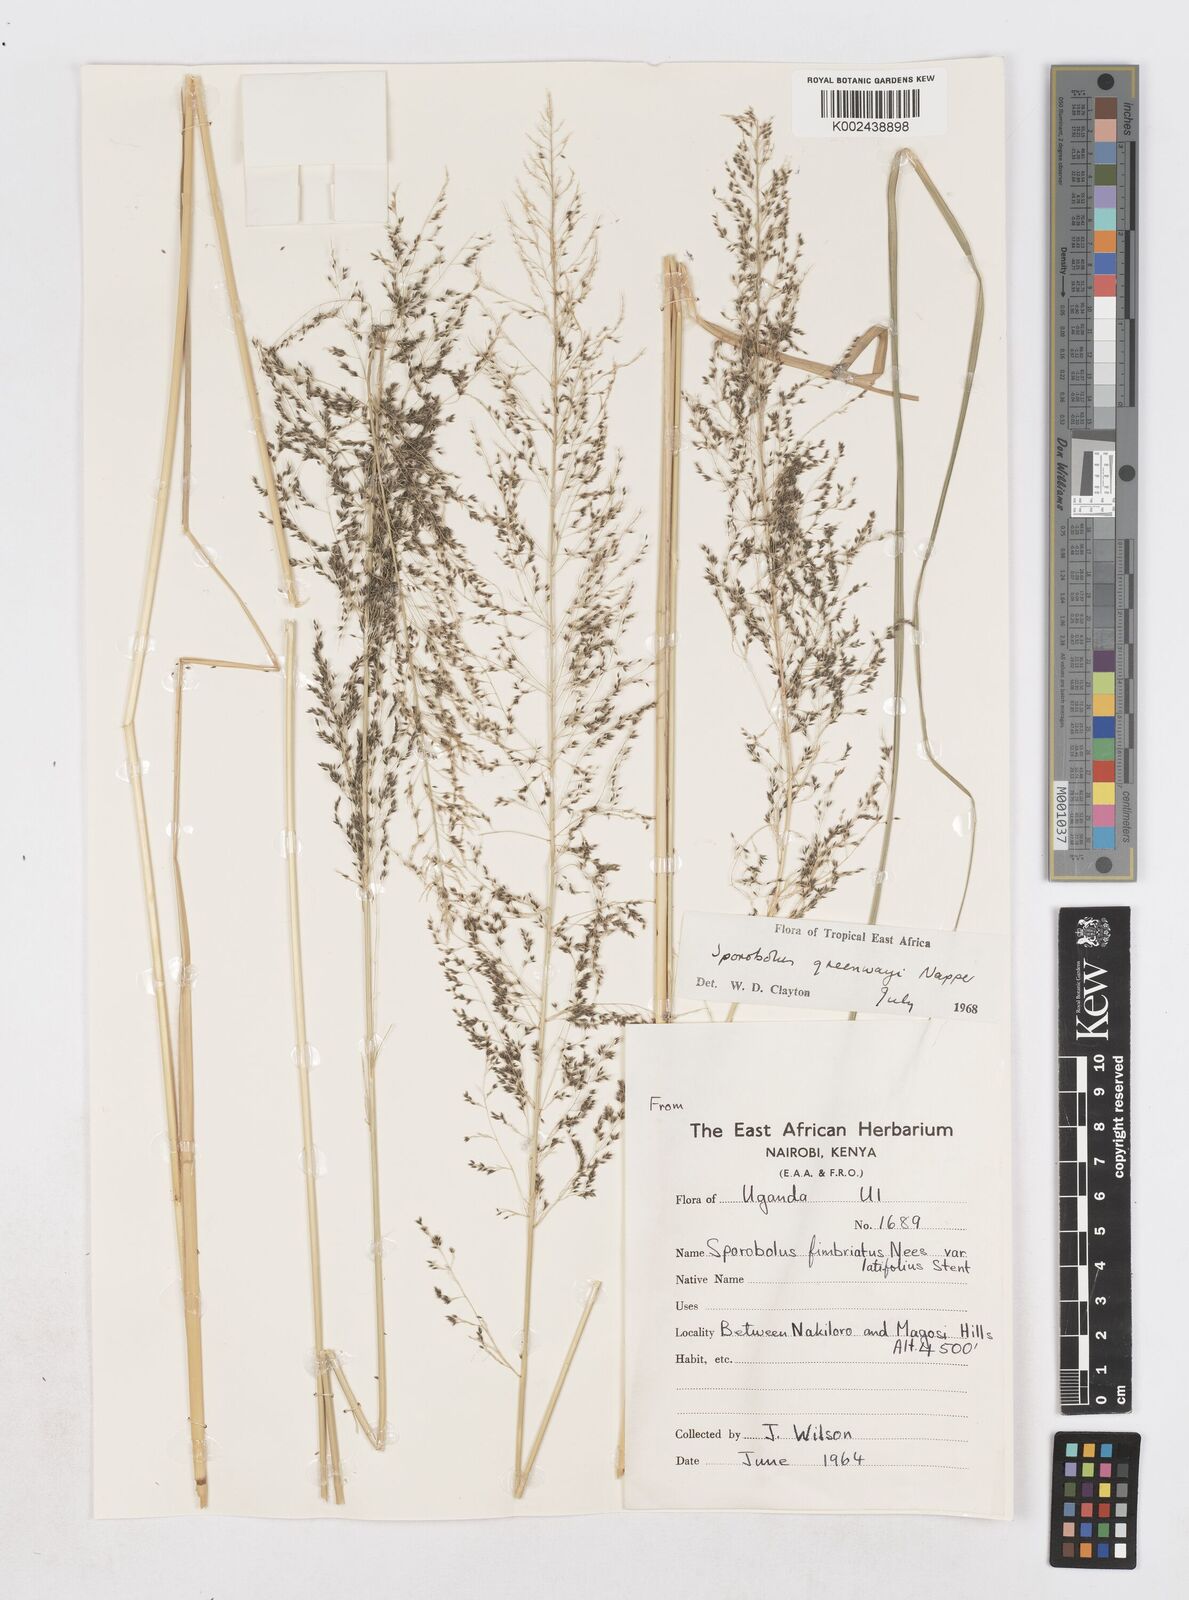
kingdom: Plantae
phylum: Tracheophyta
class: Liliopsida
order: Poales
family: Poaceae
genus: Sporobolus
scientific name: Sporobolus macranthelus
